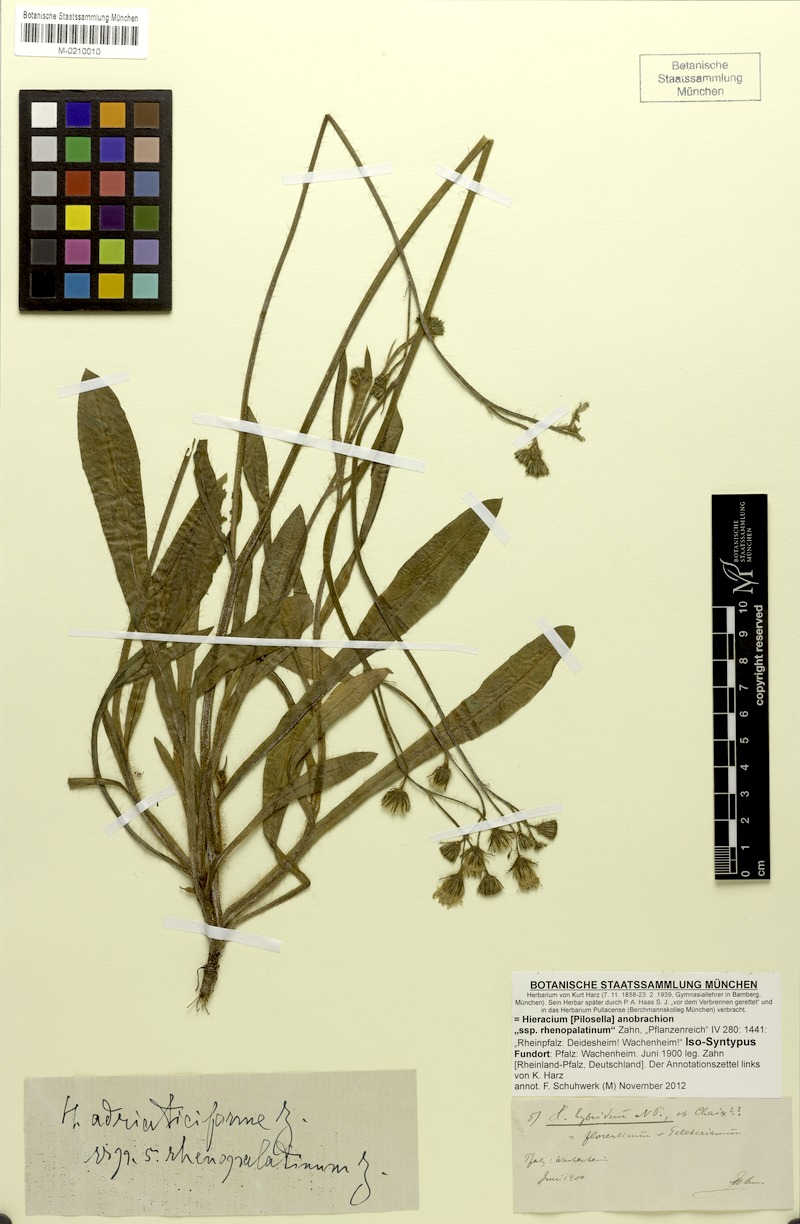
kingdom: Plantae
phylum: Tracheophyta
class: Magnoliopsida
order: Asterales
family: Asteraceae
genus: Pilosella
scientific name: Pilosella anobrachia
